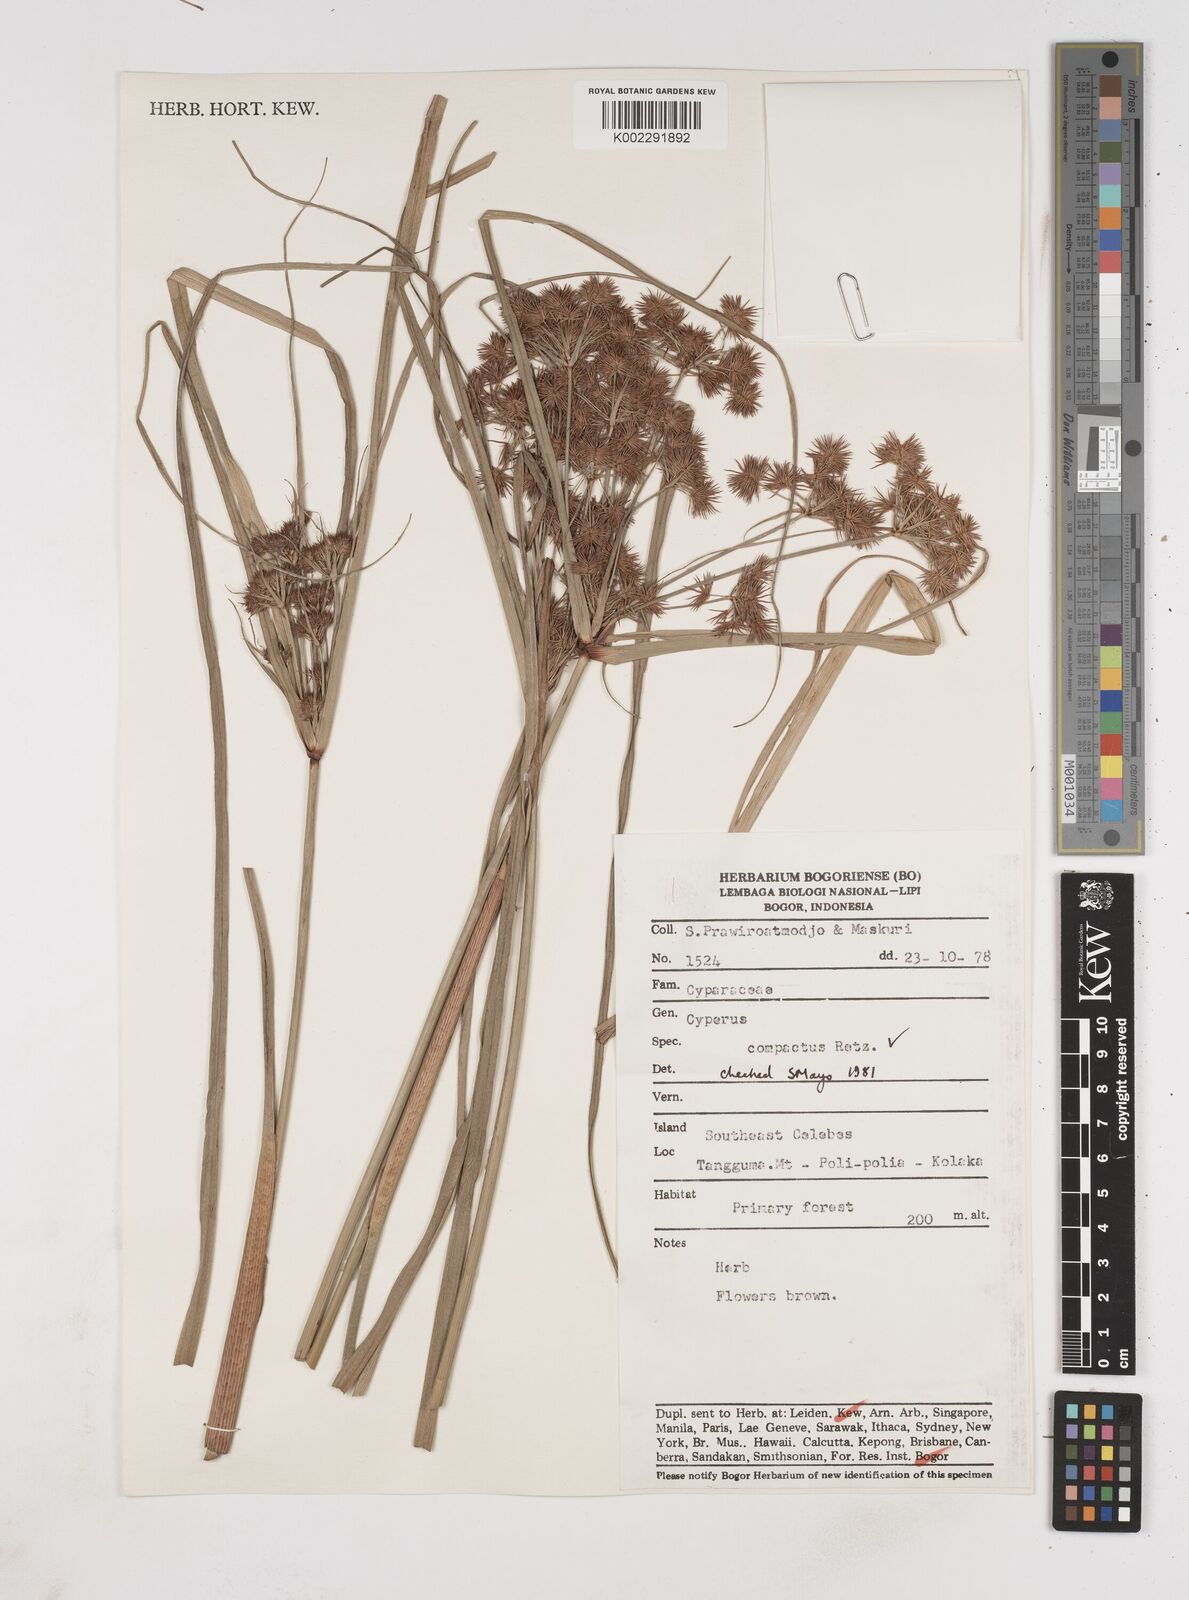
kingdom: Plantae
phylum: Tracheophyta
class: Liliopsida
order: Poales
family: Cyperaceae
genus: Cyperus
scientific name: Cyperus compactus
